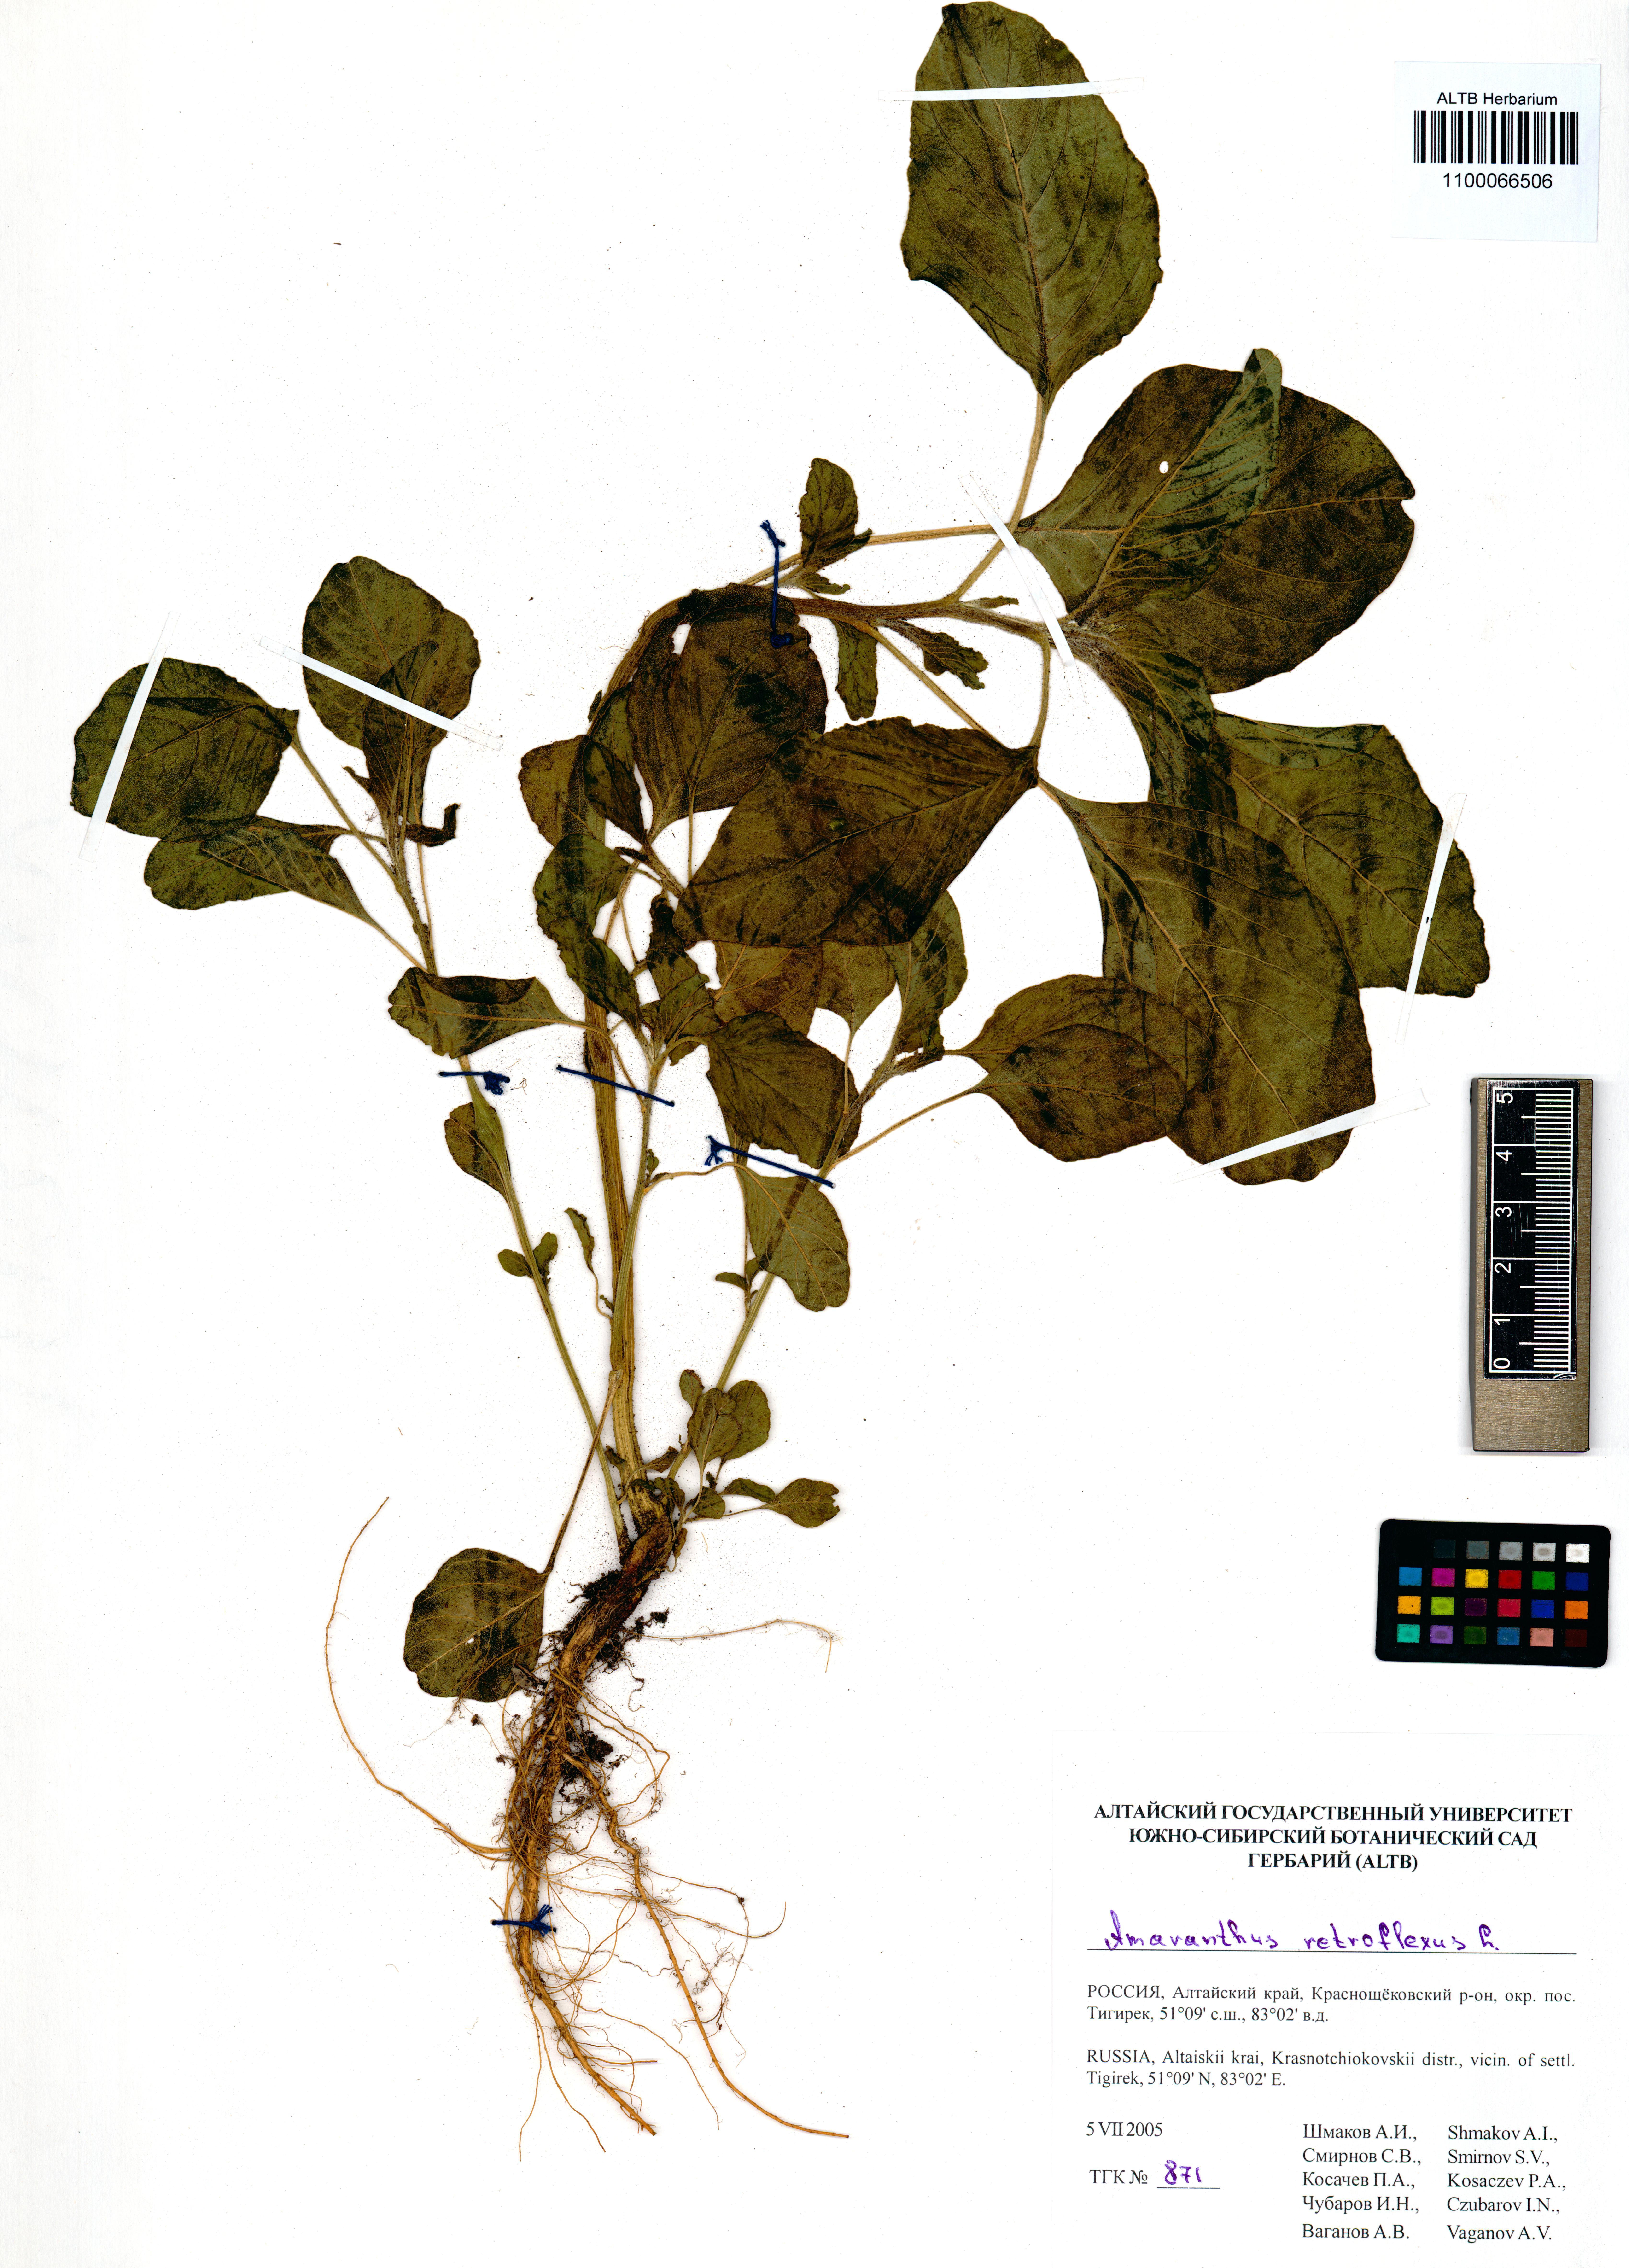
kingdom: Plantae
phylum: Tracheophyta
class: Magnoliopsida
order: Caryophyllales
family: Amaranthaceae
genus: Amaranthus
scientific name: Amaranthus retroflexus
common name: Redroot amaranth
